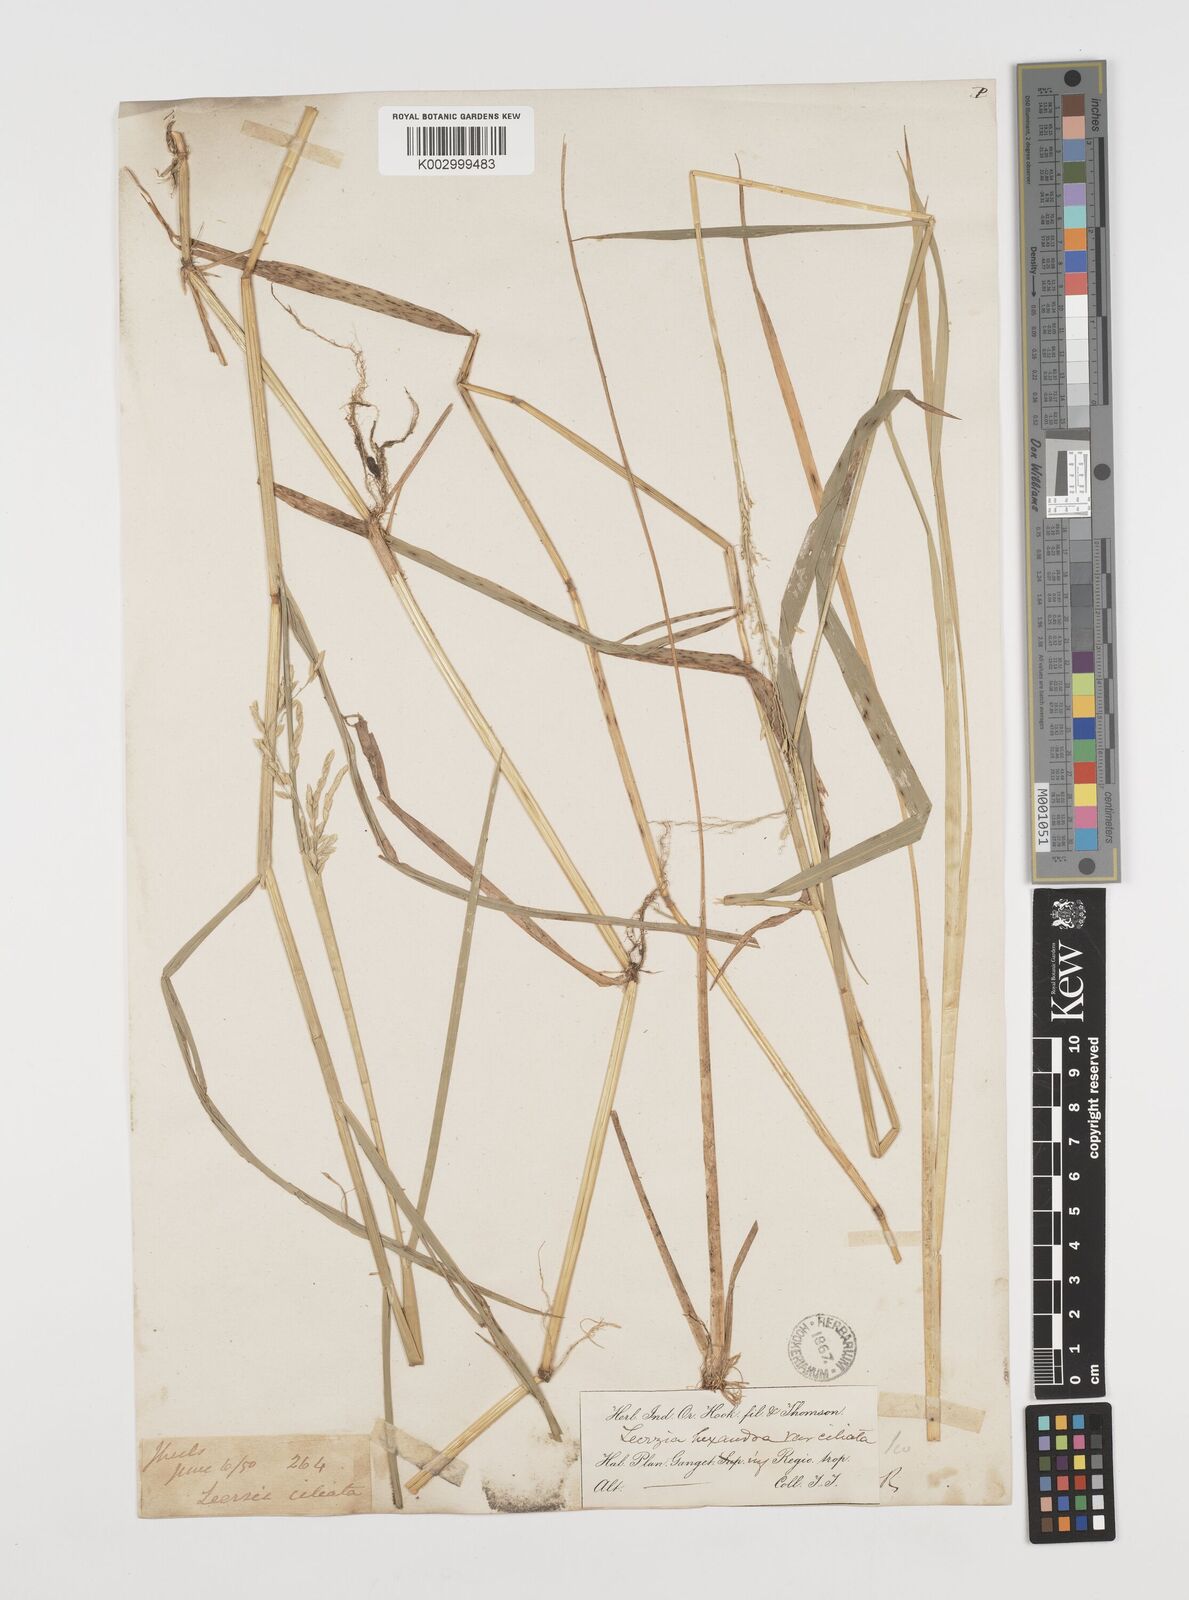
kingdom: Plantae
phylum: Tracheophyta
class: Liliopsida
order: Poales
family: Poaceae
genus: Leersia
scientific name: Leersia hexandra
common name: Southern cut grass
